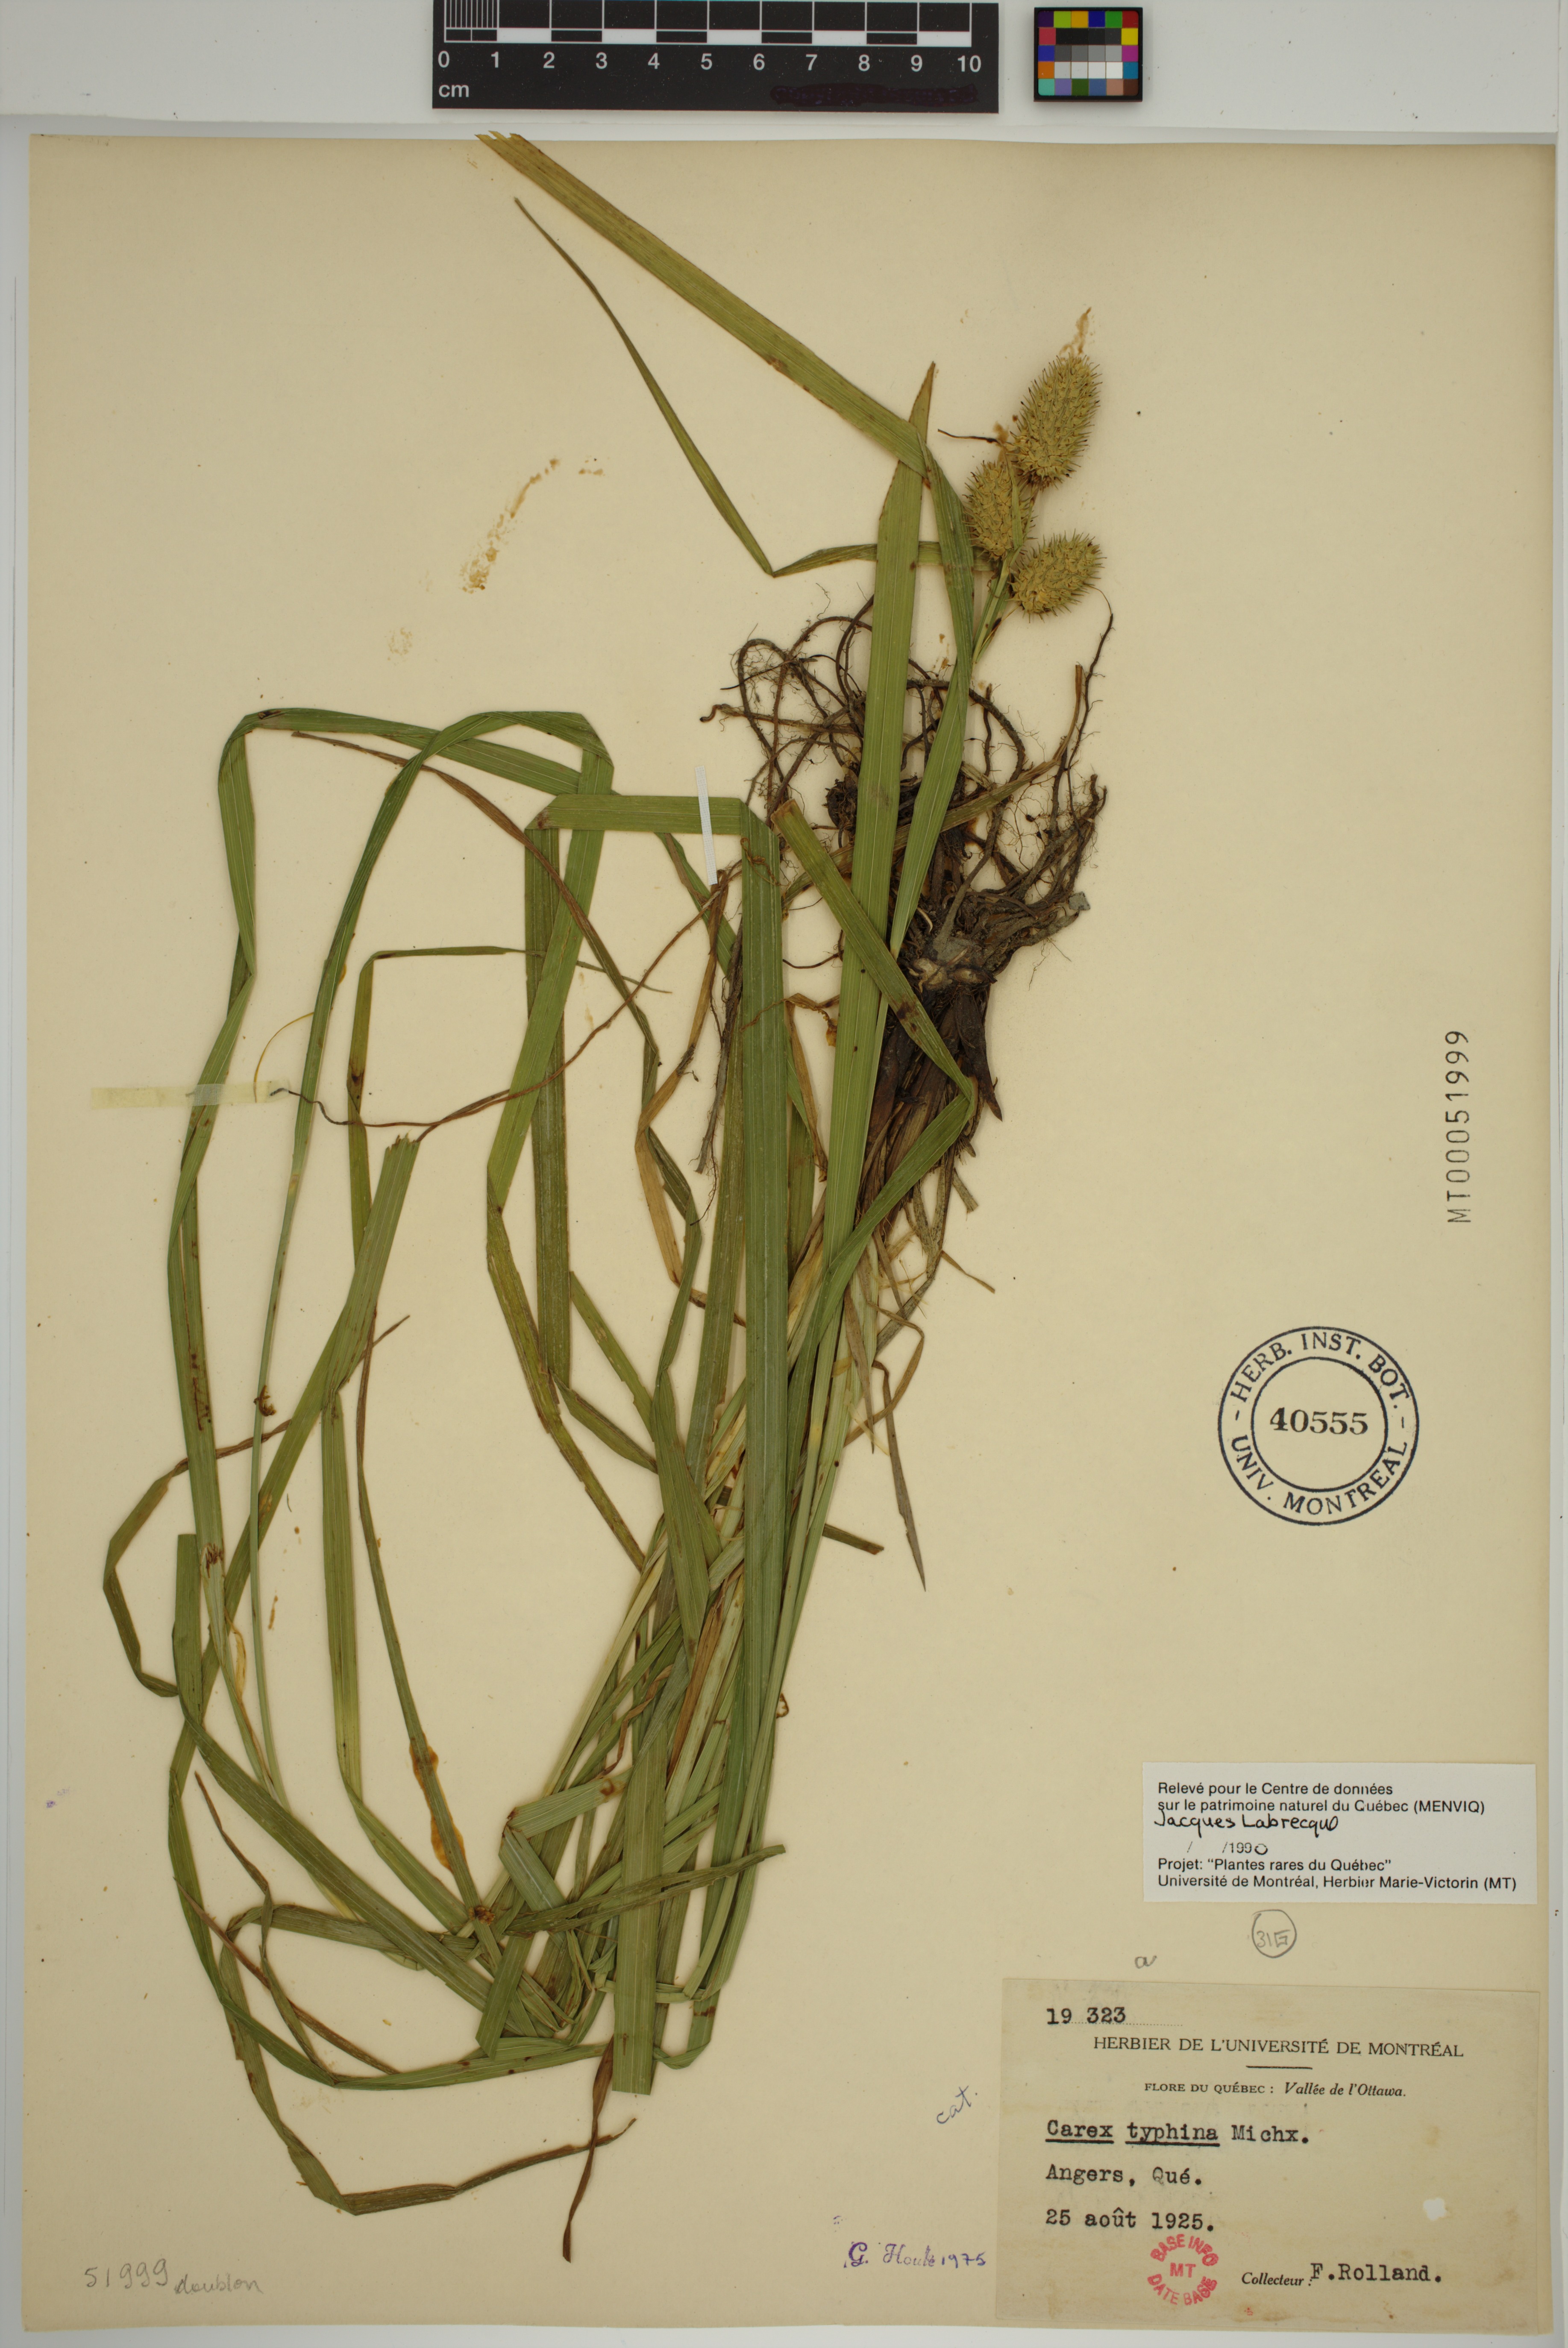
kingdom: Plantae
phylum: Tracheophyta
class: Liliopsida
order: Poales
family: Cyperaceae
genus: Carex
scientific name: Carex typhina
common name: Cattail sedge
